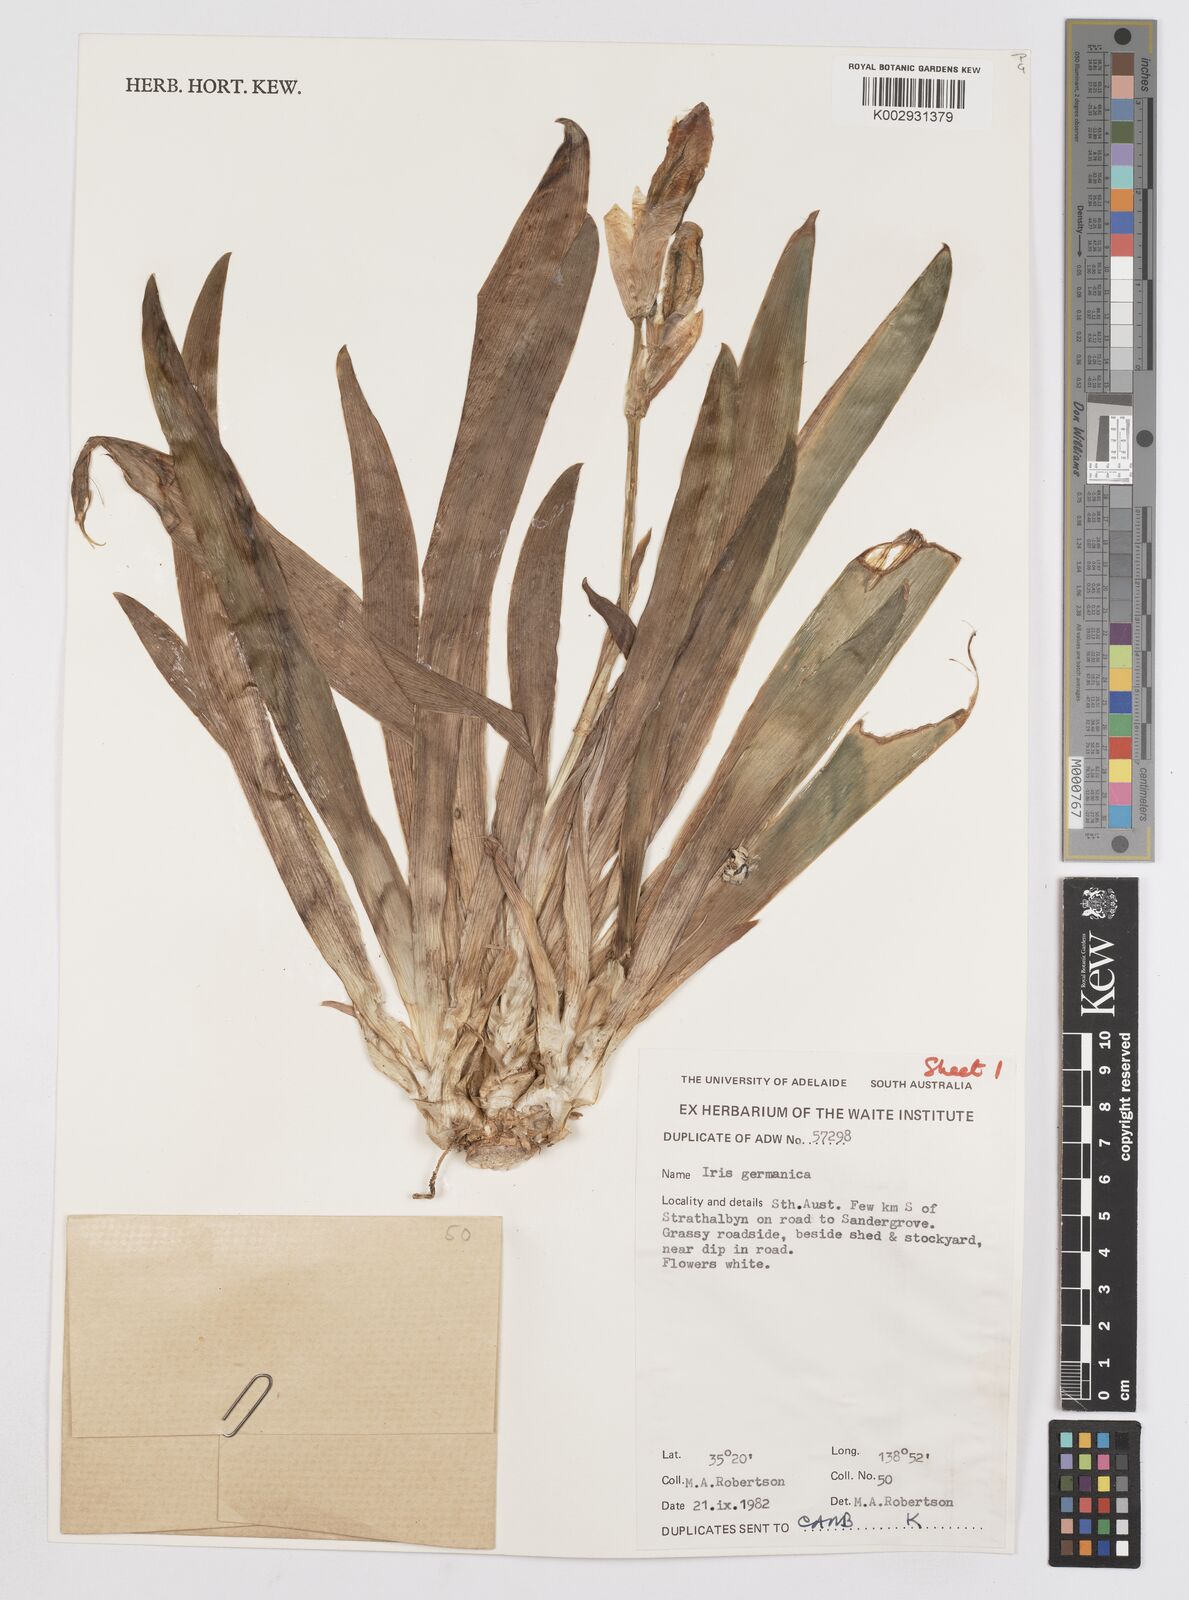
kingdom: Plantae
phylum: Tracheophyta
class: Liliopsida
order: Asparagales
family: Iridaceae
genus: Iris
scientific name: Iris germanica
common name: German iris
